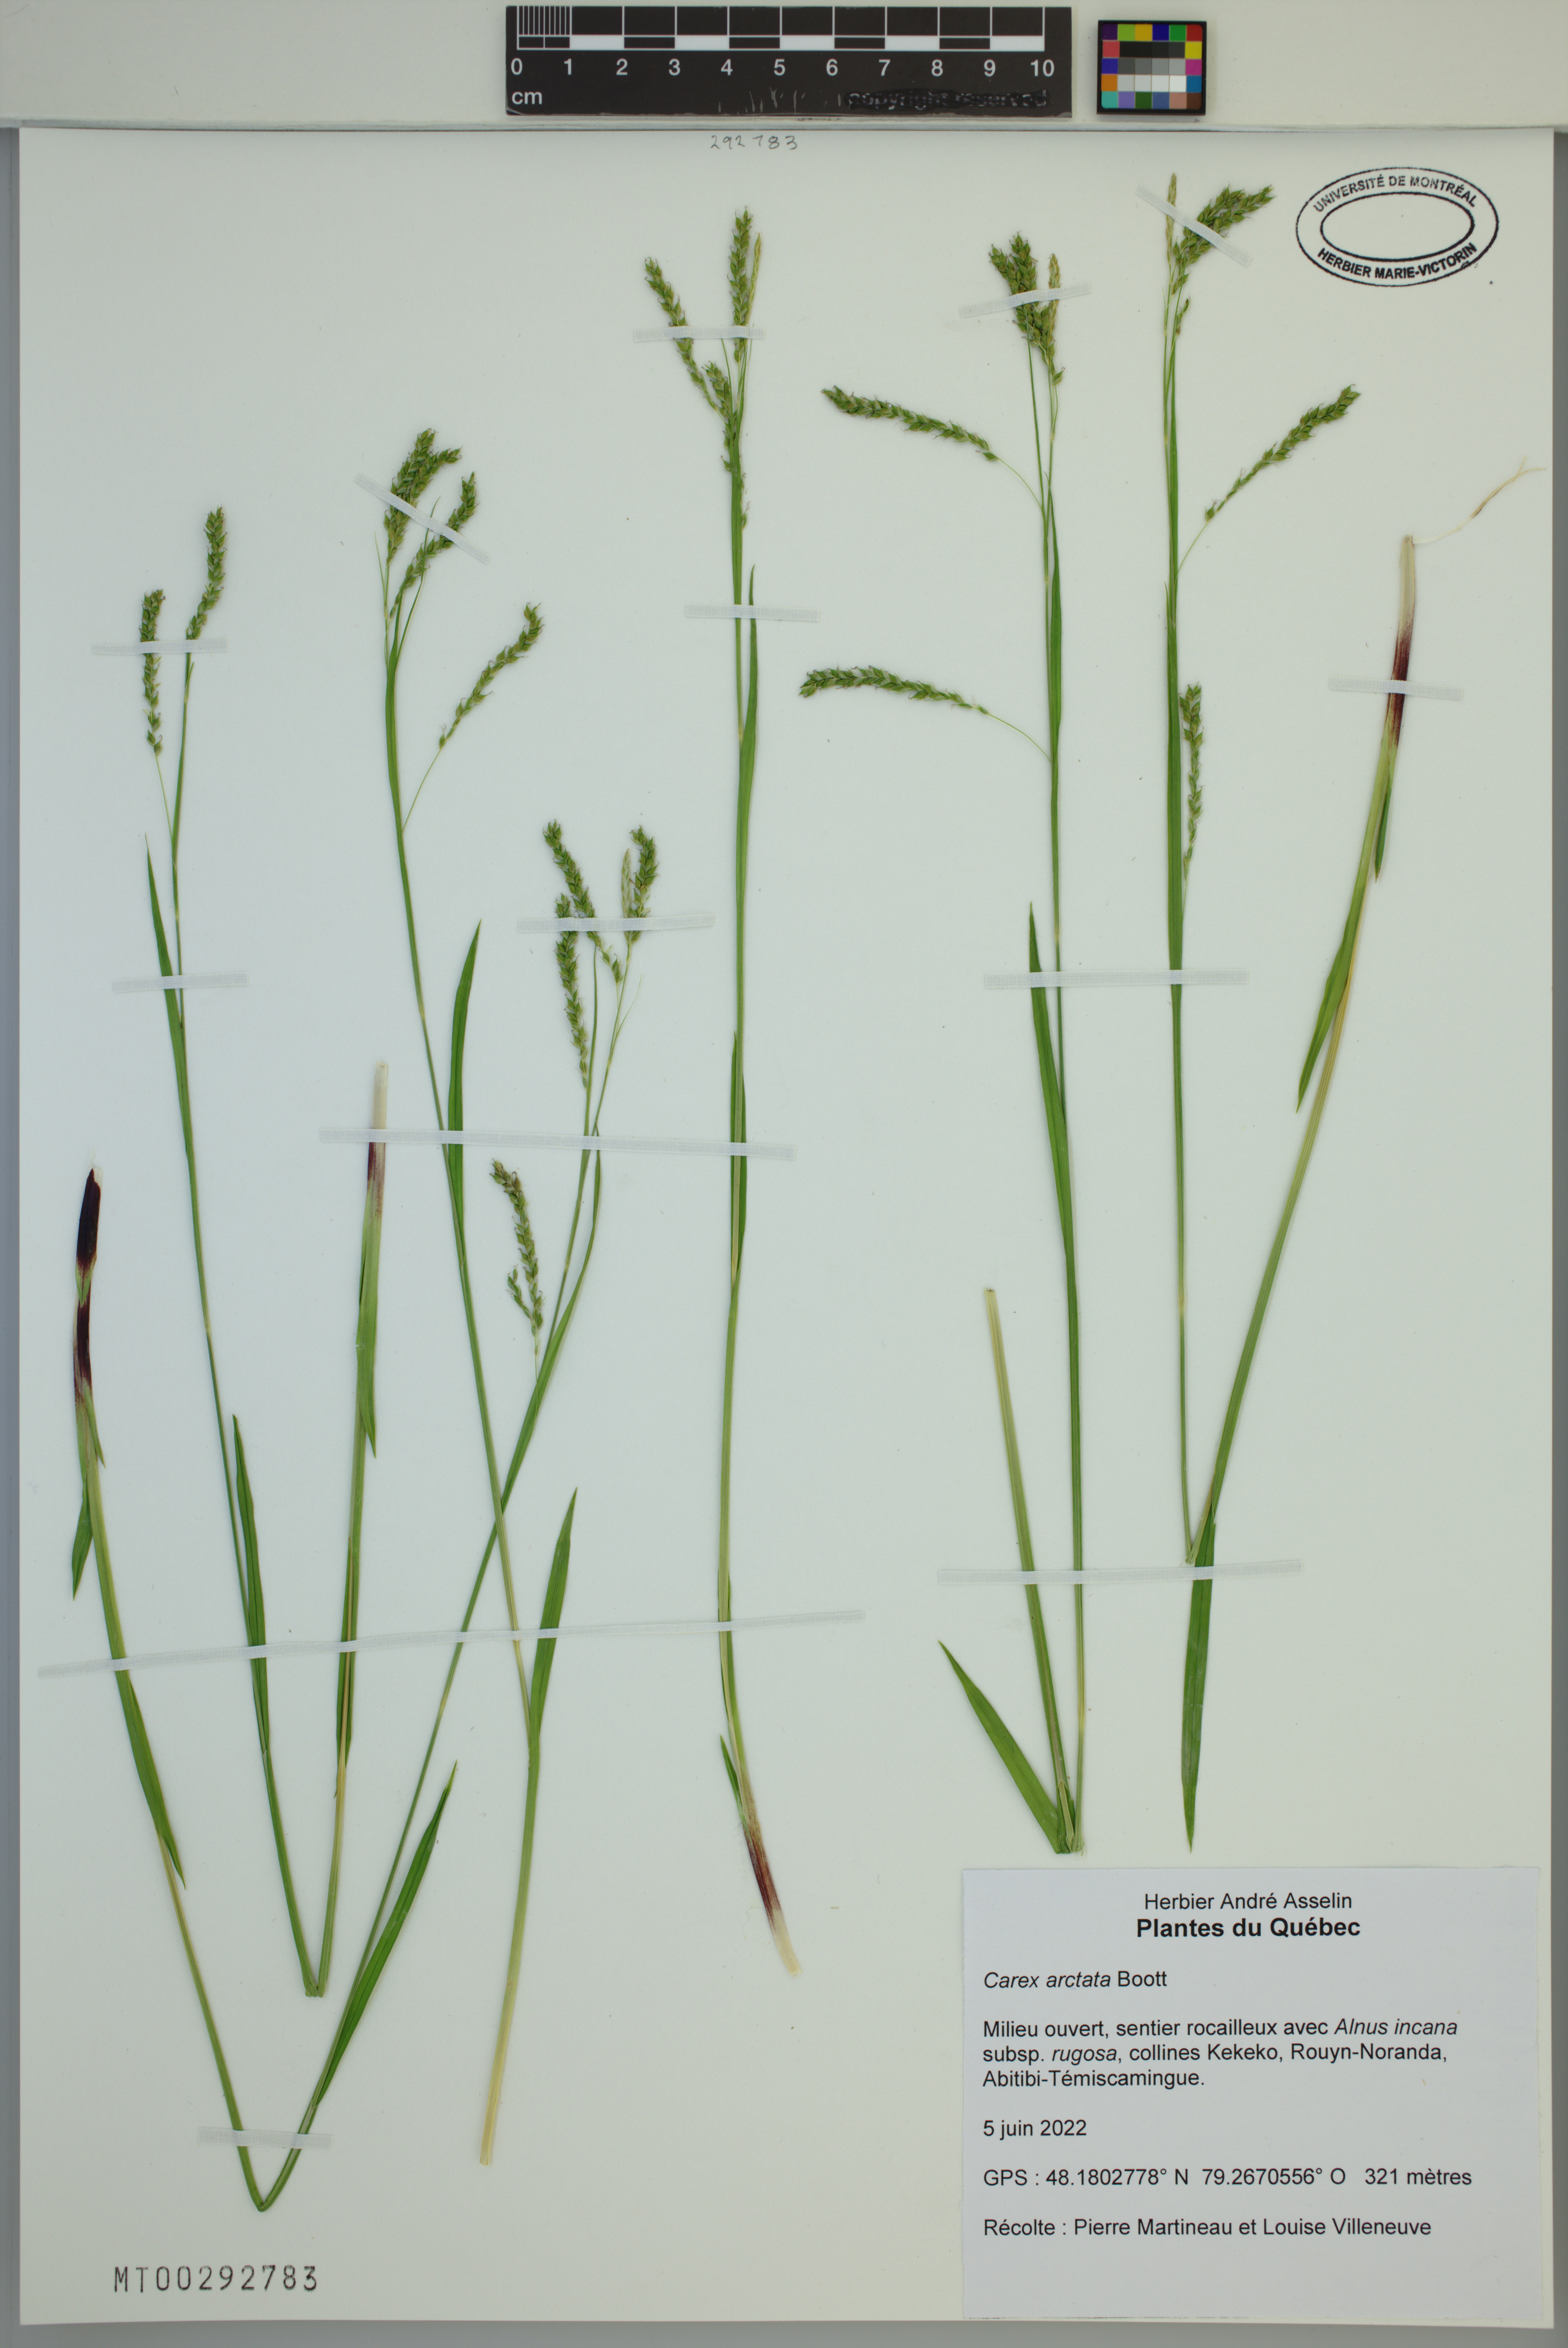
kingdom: Plantae
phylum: Tracheophyta
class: Liliopsida
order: Poales
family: Cyperaceae
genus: Carex
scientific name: Carex arctata
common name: Black sedge
